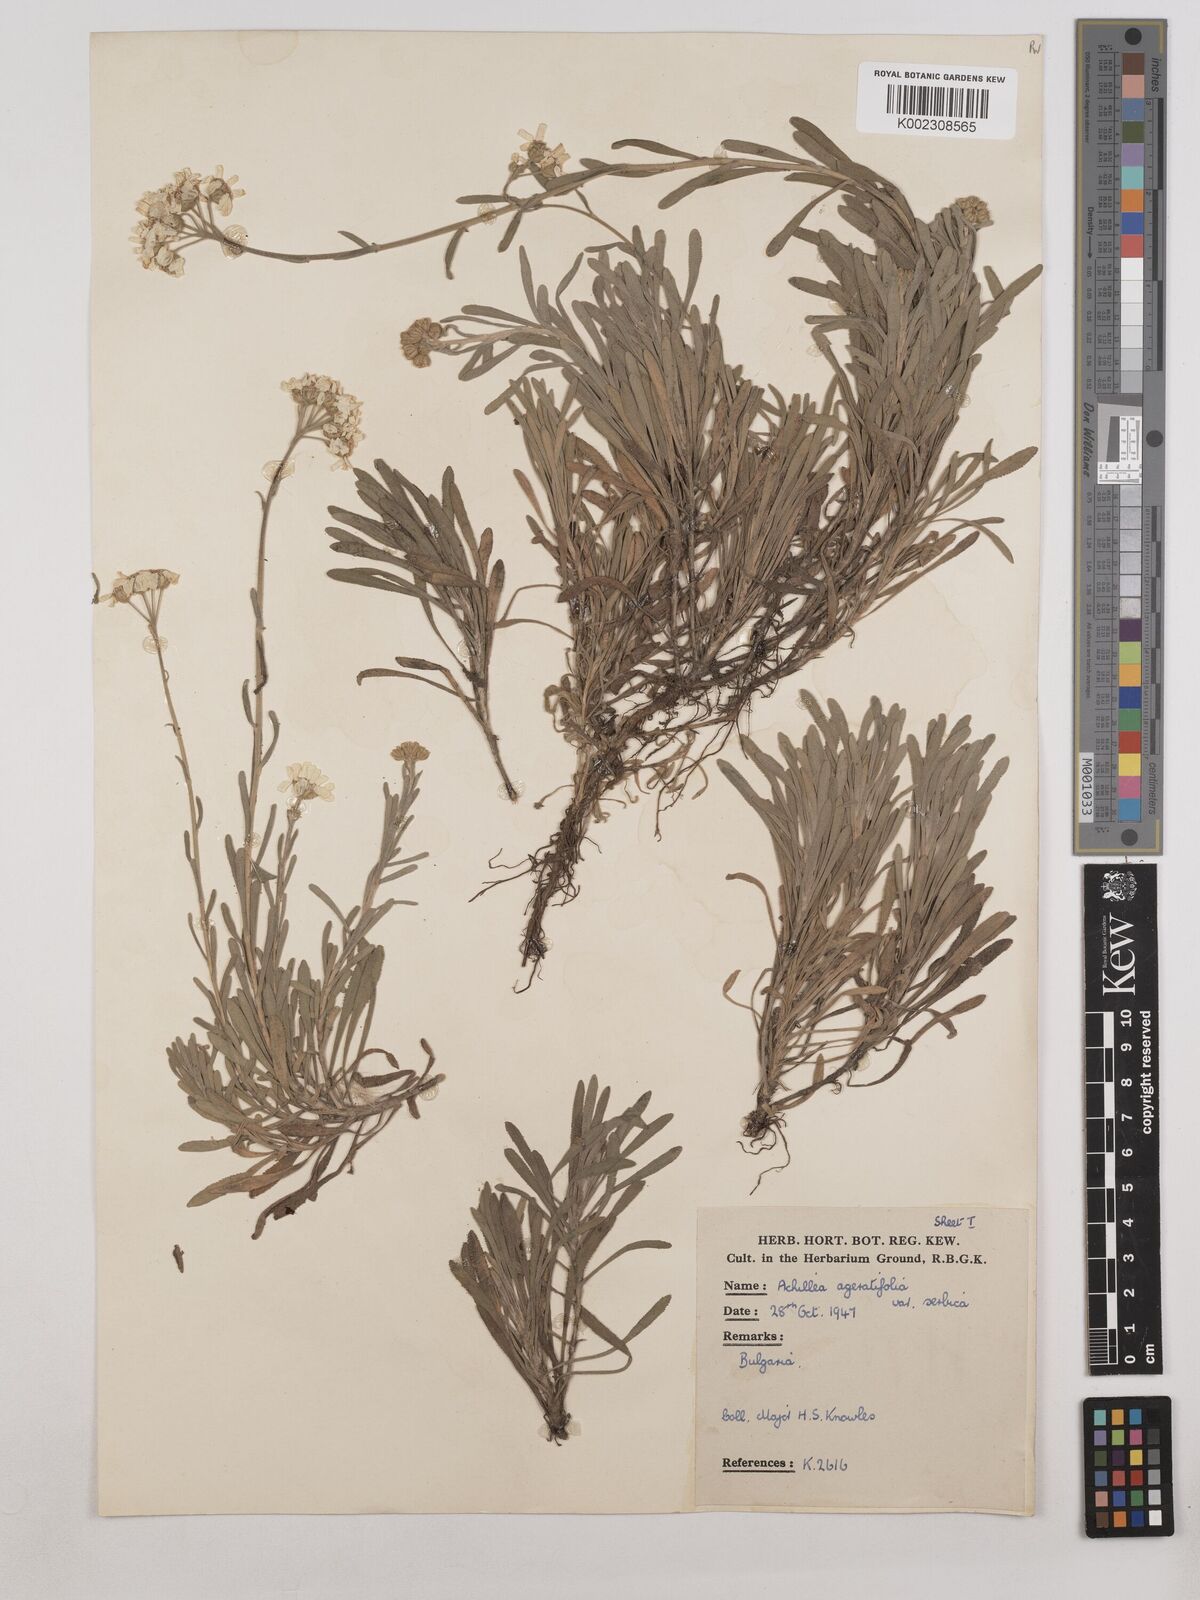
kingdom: Plantae
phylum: Tracheophyta
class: Magnoliopsida
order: Asterales
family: Asteraceae
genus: Achillea
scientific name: Achillea ageratifolia
